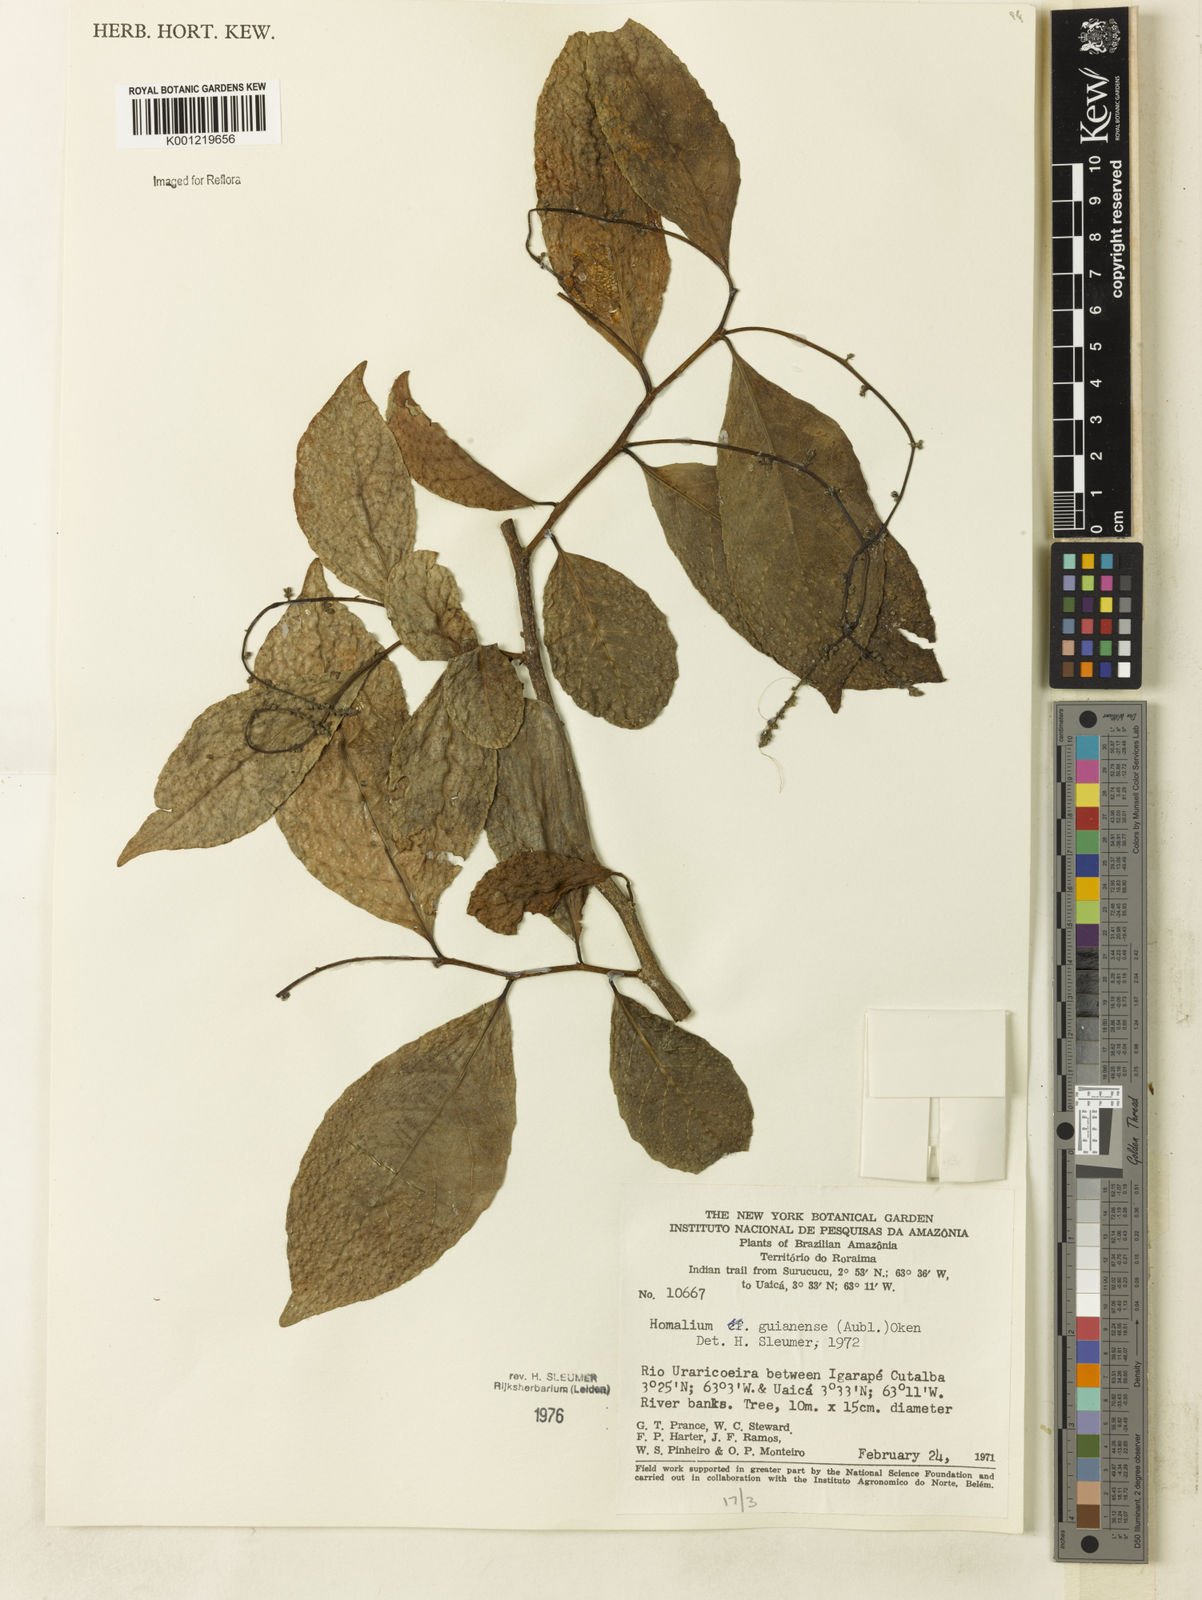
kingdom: Plantae
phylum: Tracheophyta
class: Magnoliopsida
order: Malpighiales
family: Salicaceae
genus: Homalium
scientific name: Homalium guianense
